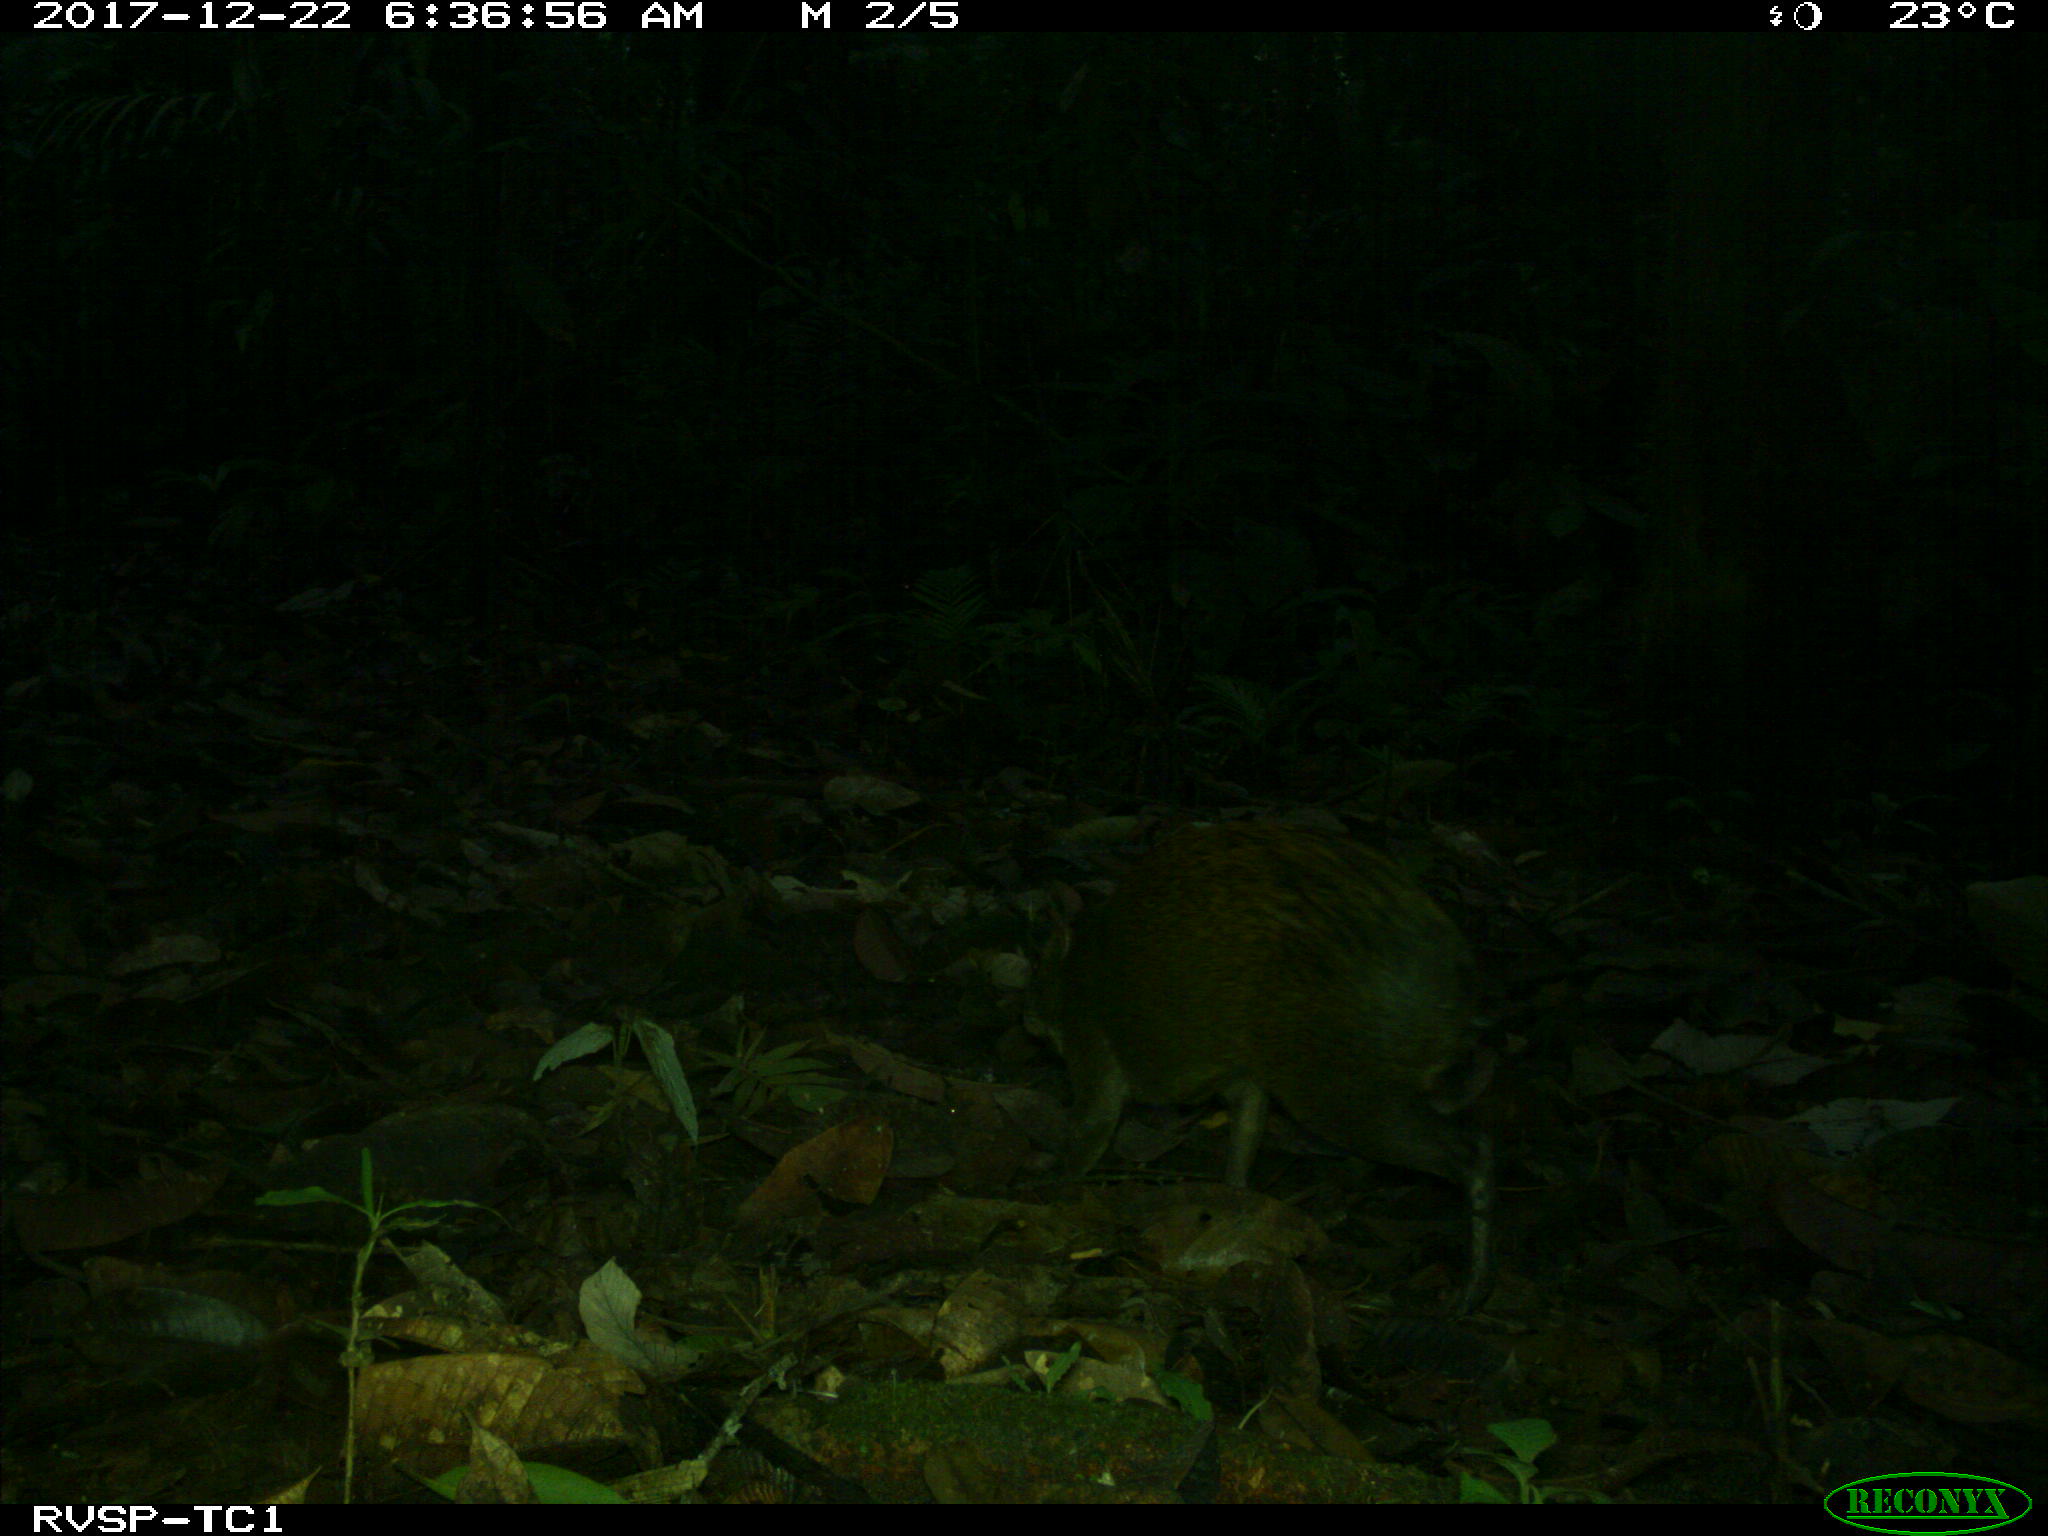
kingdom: Animalia
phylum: Chordata
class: Mammalia
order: Rodentia
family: Dasyproctidae
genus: Dasyprocta
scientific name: Dasyprocta punctata
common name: Central american agouti
